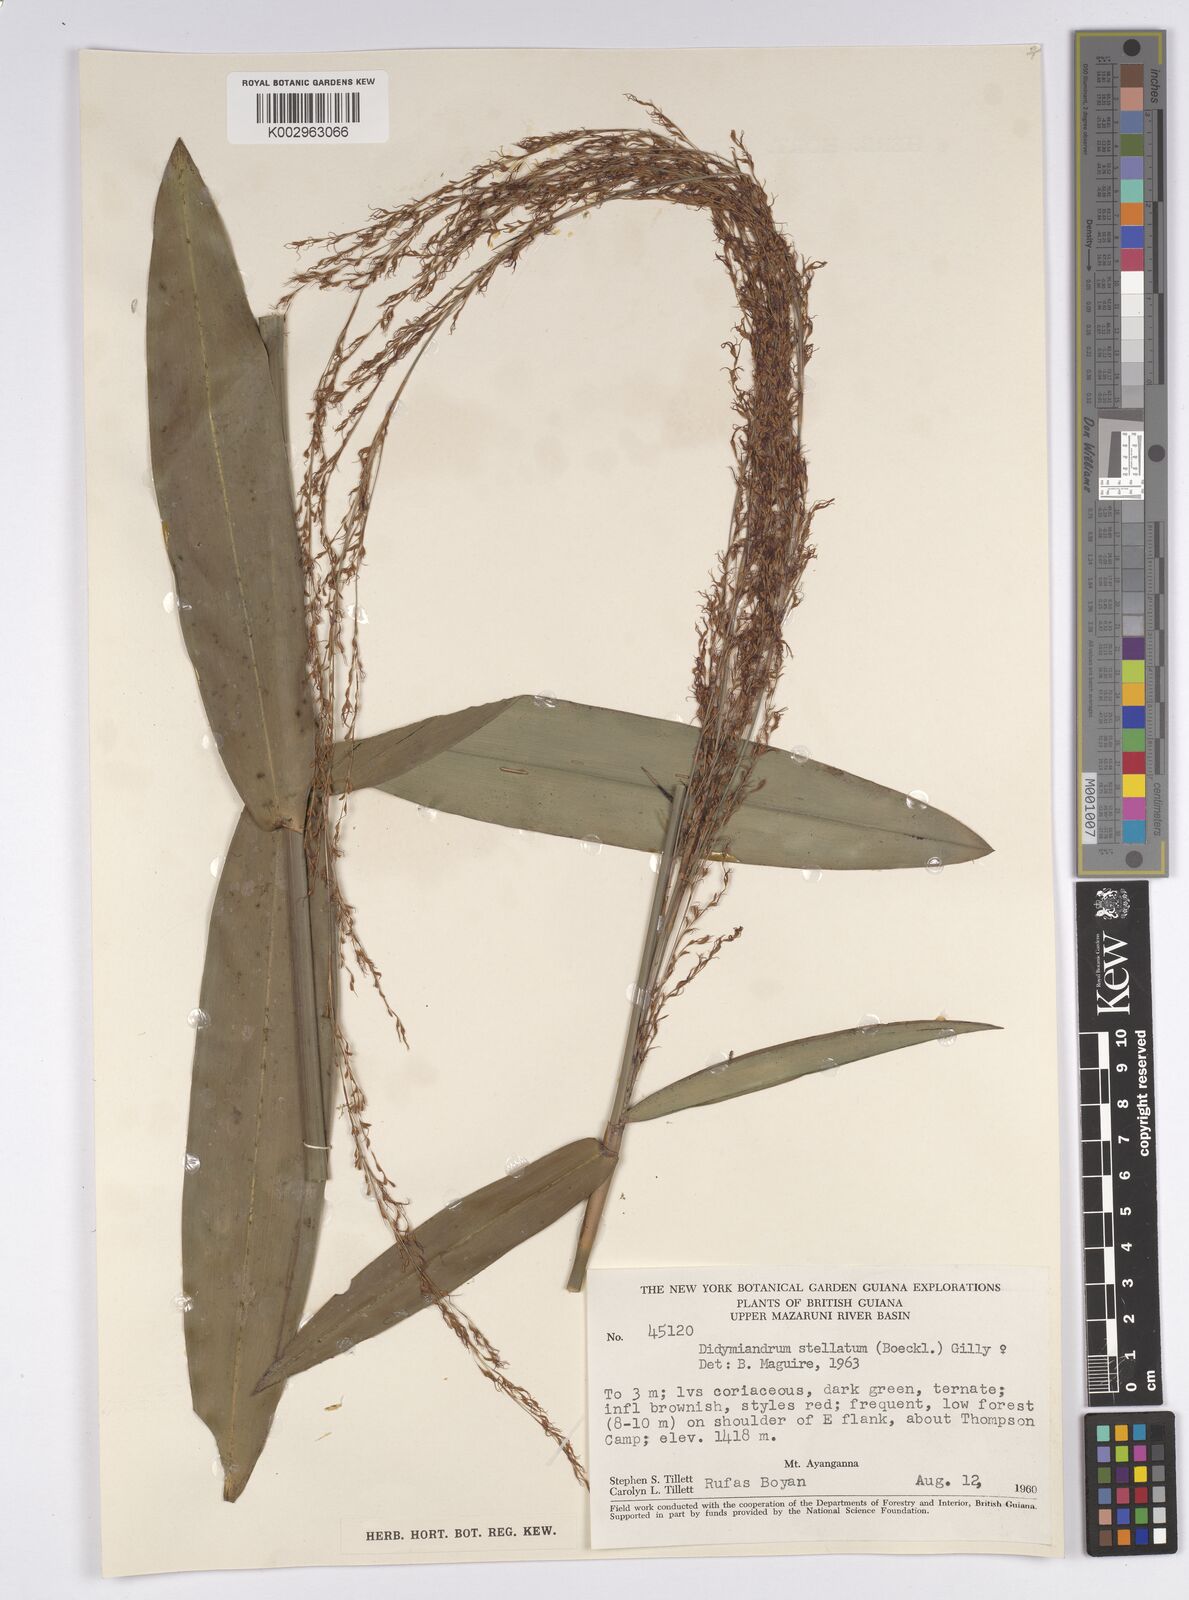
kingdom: Plantae
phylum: Tracheophyta
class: Liliopsida
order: Poales
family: Cyperaceae
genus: Didymiandrum
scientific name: Didymiandrum stellatum
